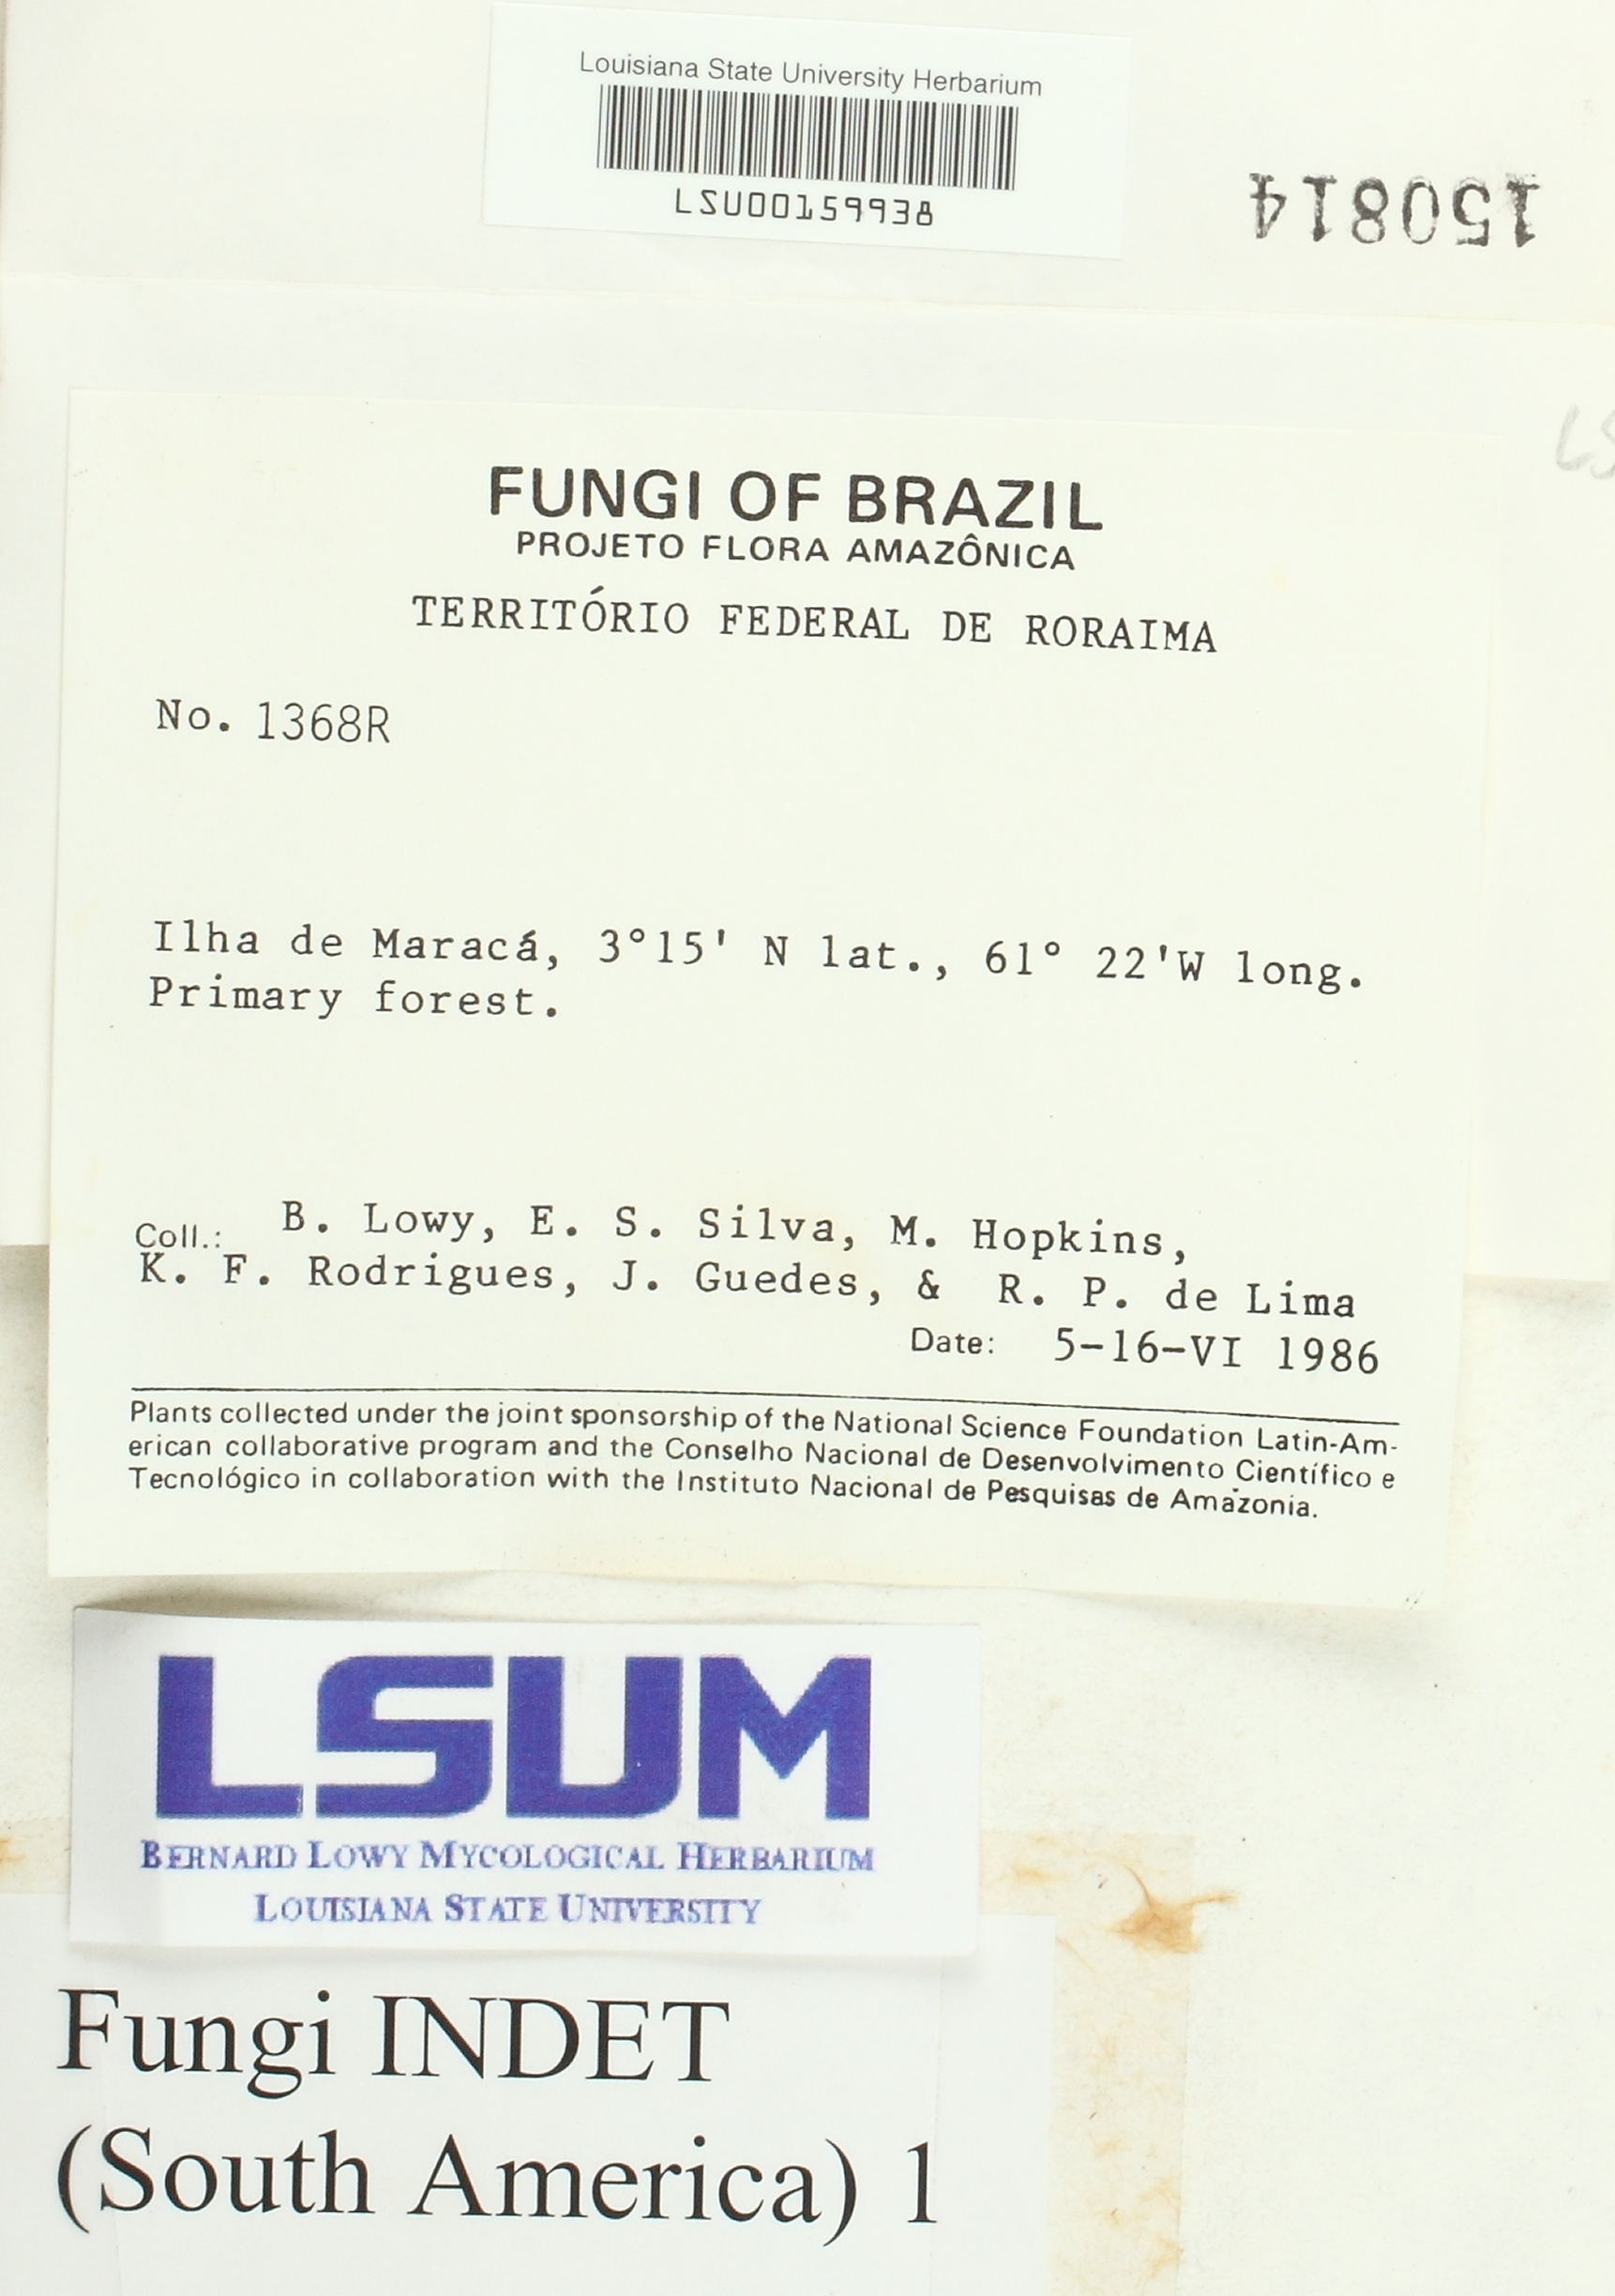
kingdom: Fungi
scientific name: Fungi
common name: Fungi
